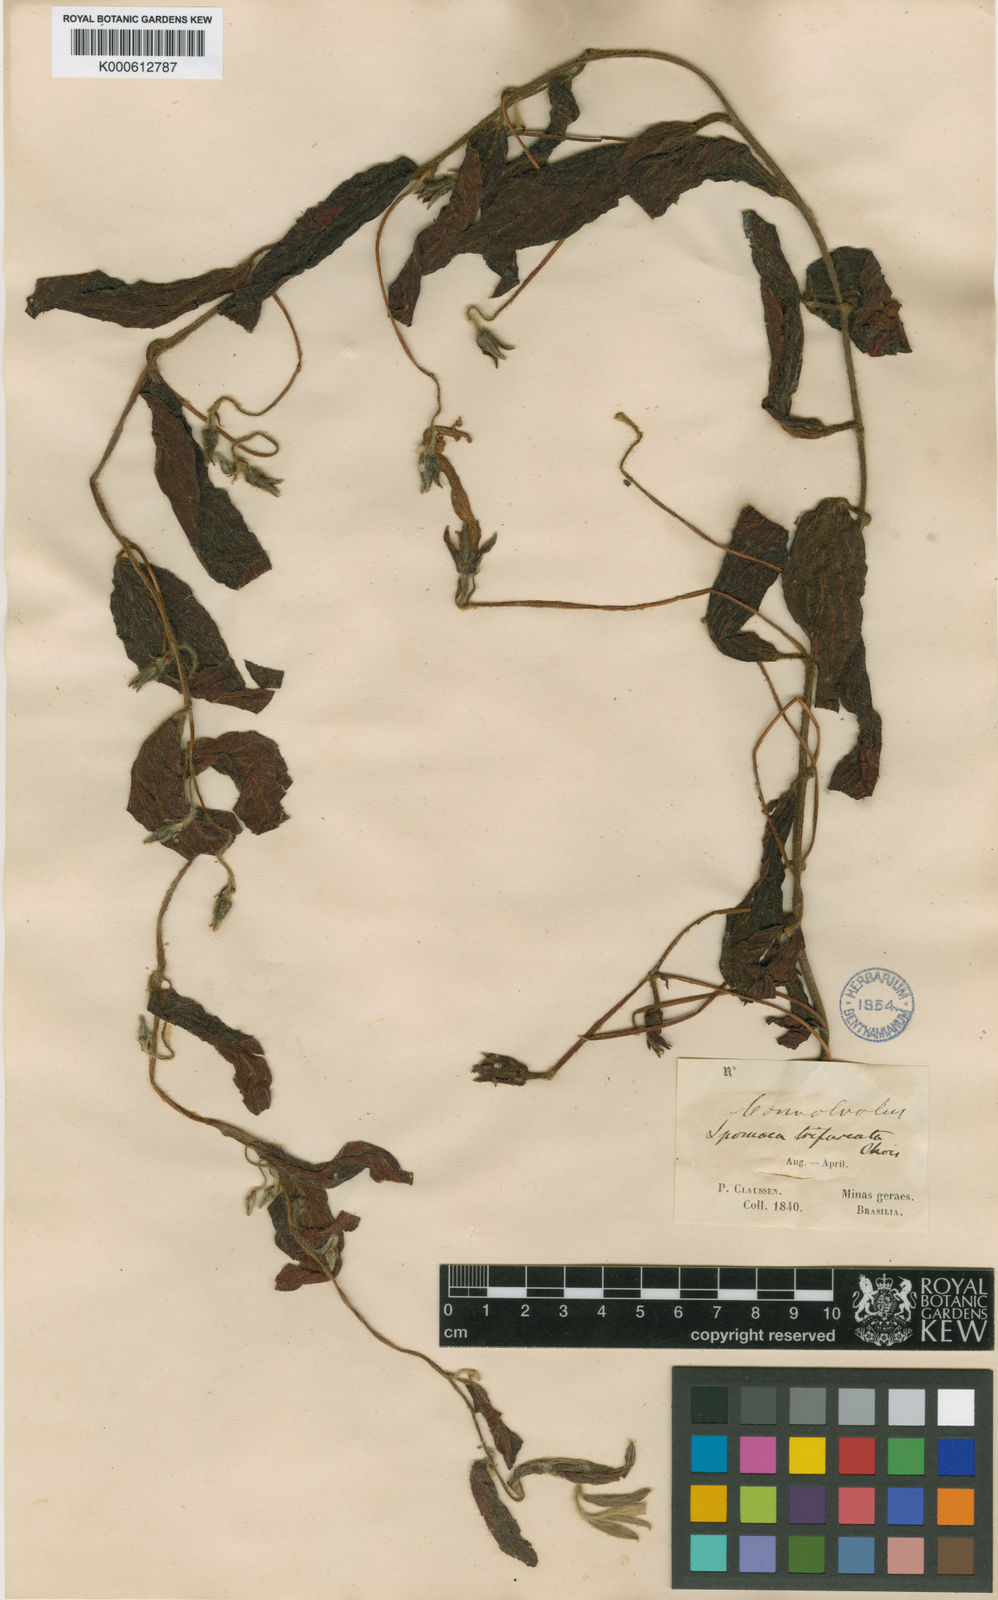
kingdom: Plantae
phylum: Tracheophyta
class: Magnoliopsida
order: Solanales
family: Convolvulaceae
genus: Ipomoea
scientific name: Ipomoea delphinioides
